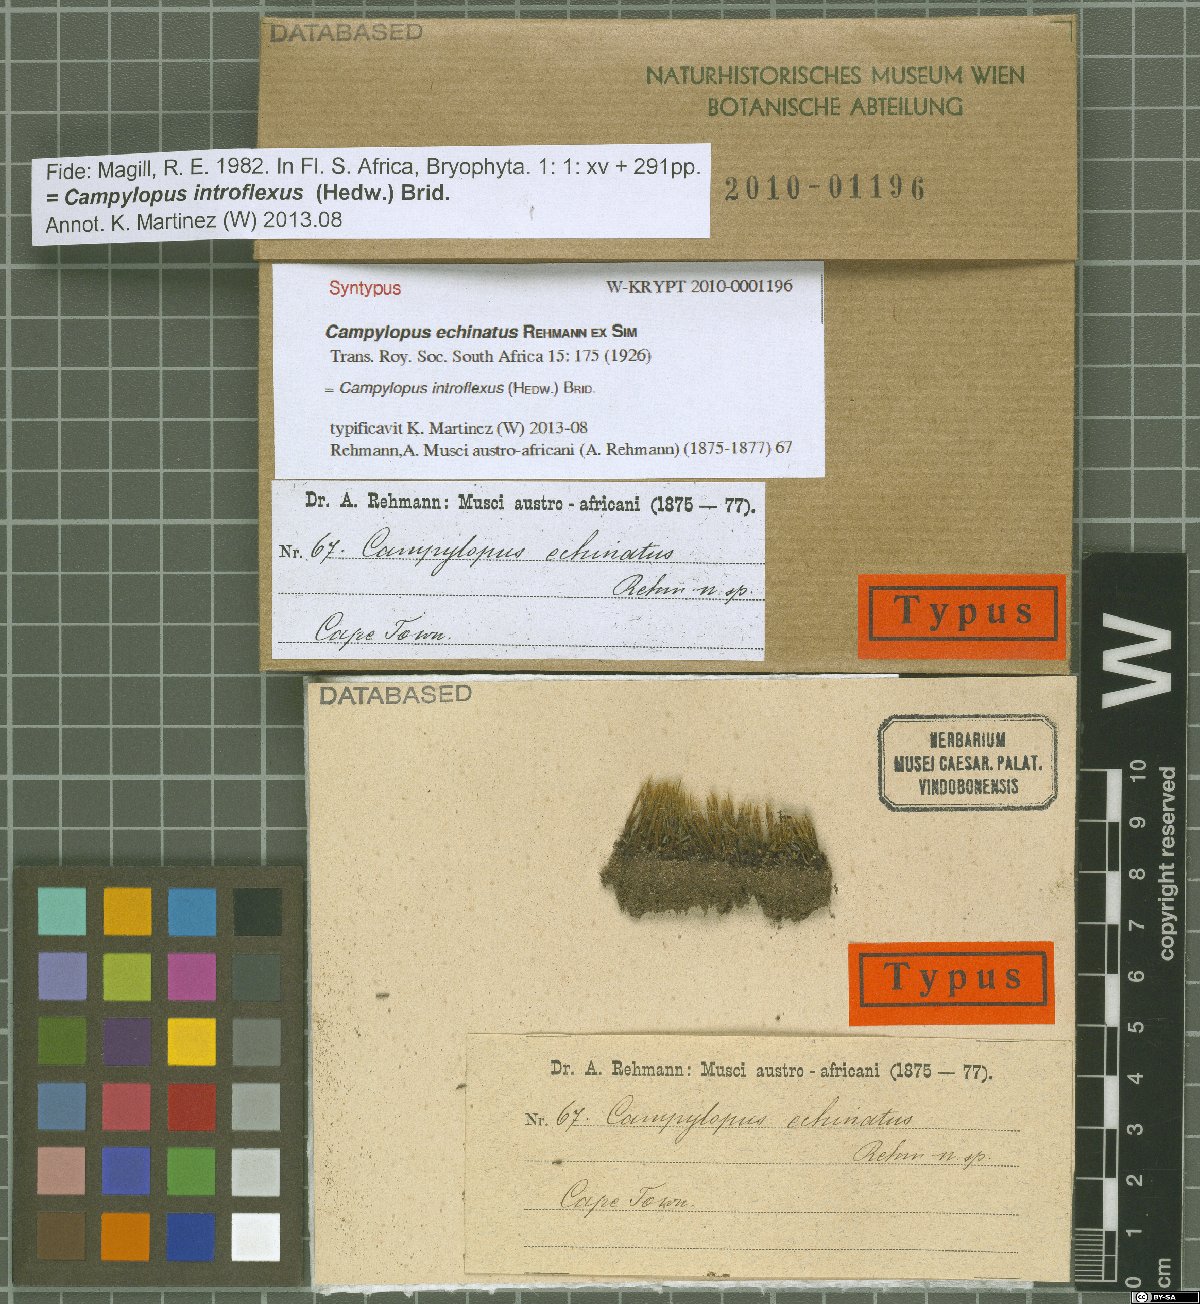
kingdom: Plantae
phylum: Bryophyta
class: Bryopsida
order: Dicranales
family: Leucobryaceae
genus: Campylopus
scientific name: Campylopus introflexus
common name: Heath star moss
